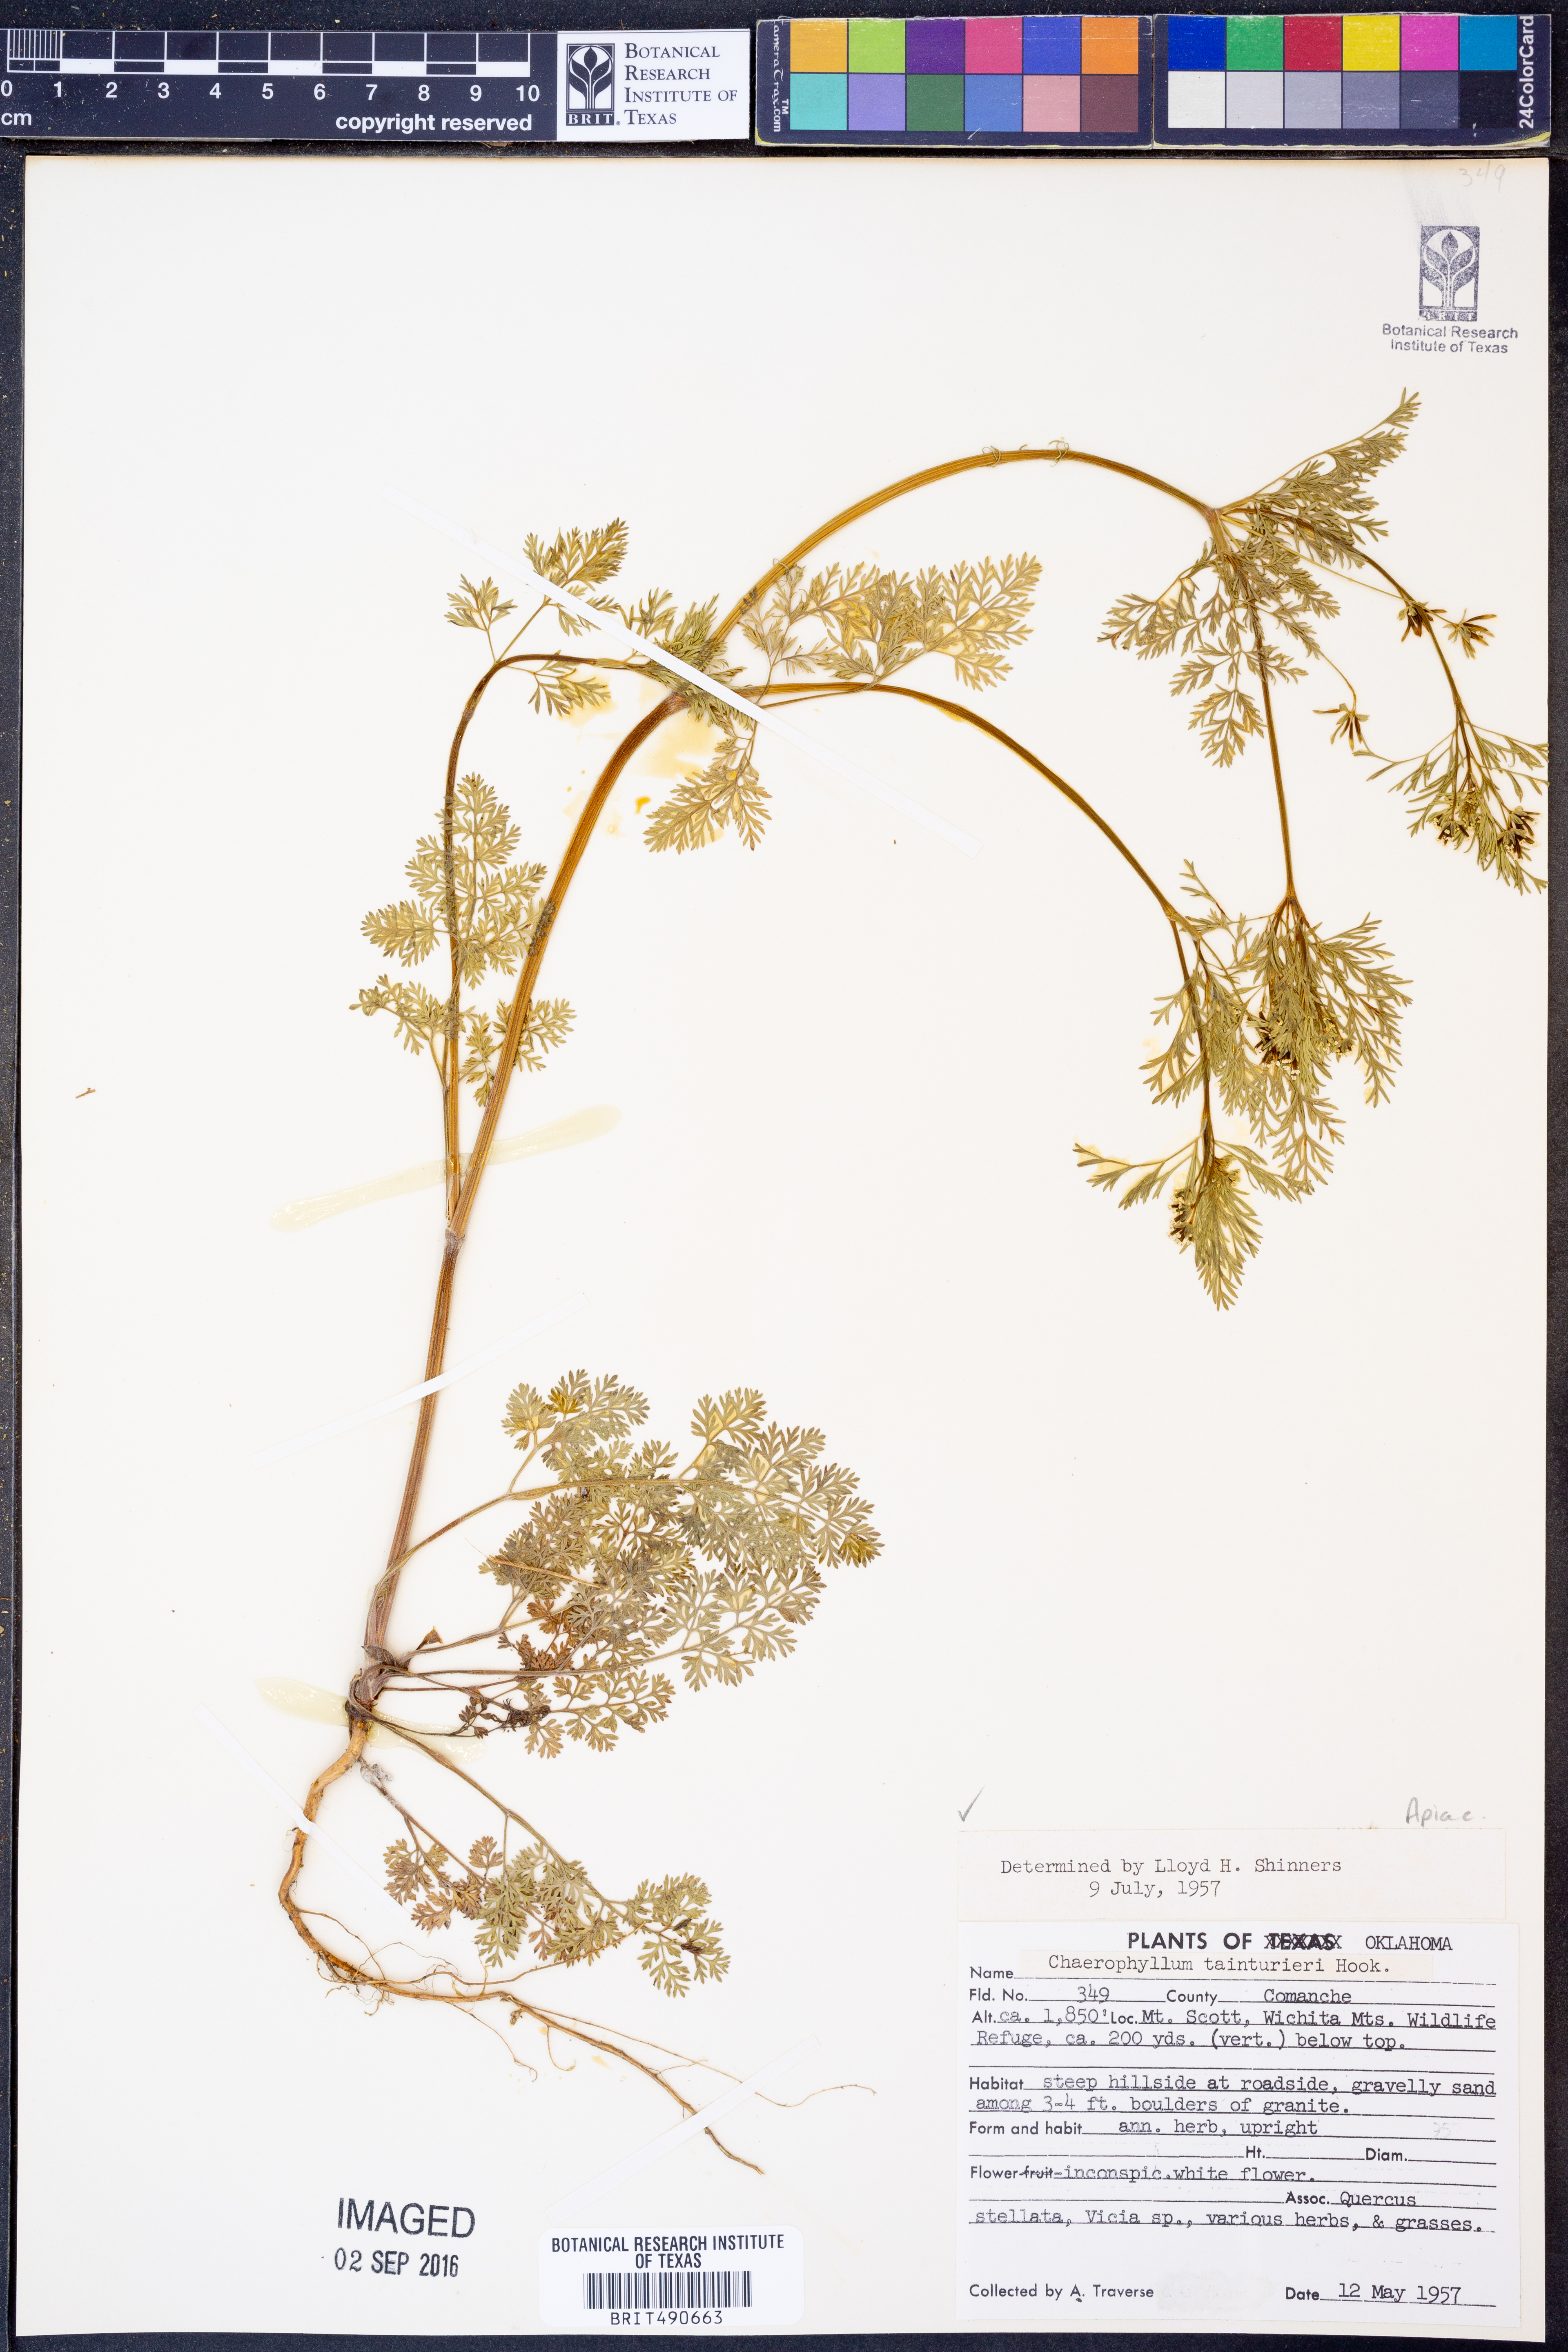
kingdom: Plantae
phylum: Tracheophyta
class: Magnoliopsida
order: Apiales
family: Apiaceae
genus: Chaerophyllum
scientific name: Chaerophyllum tainturieri
